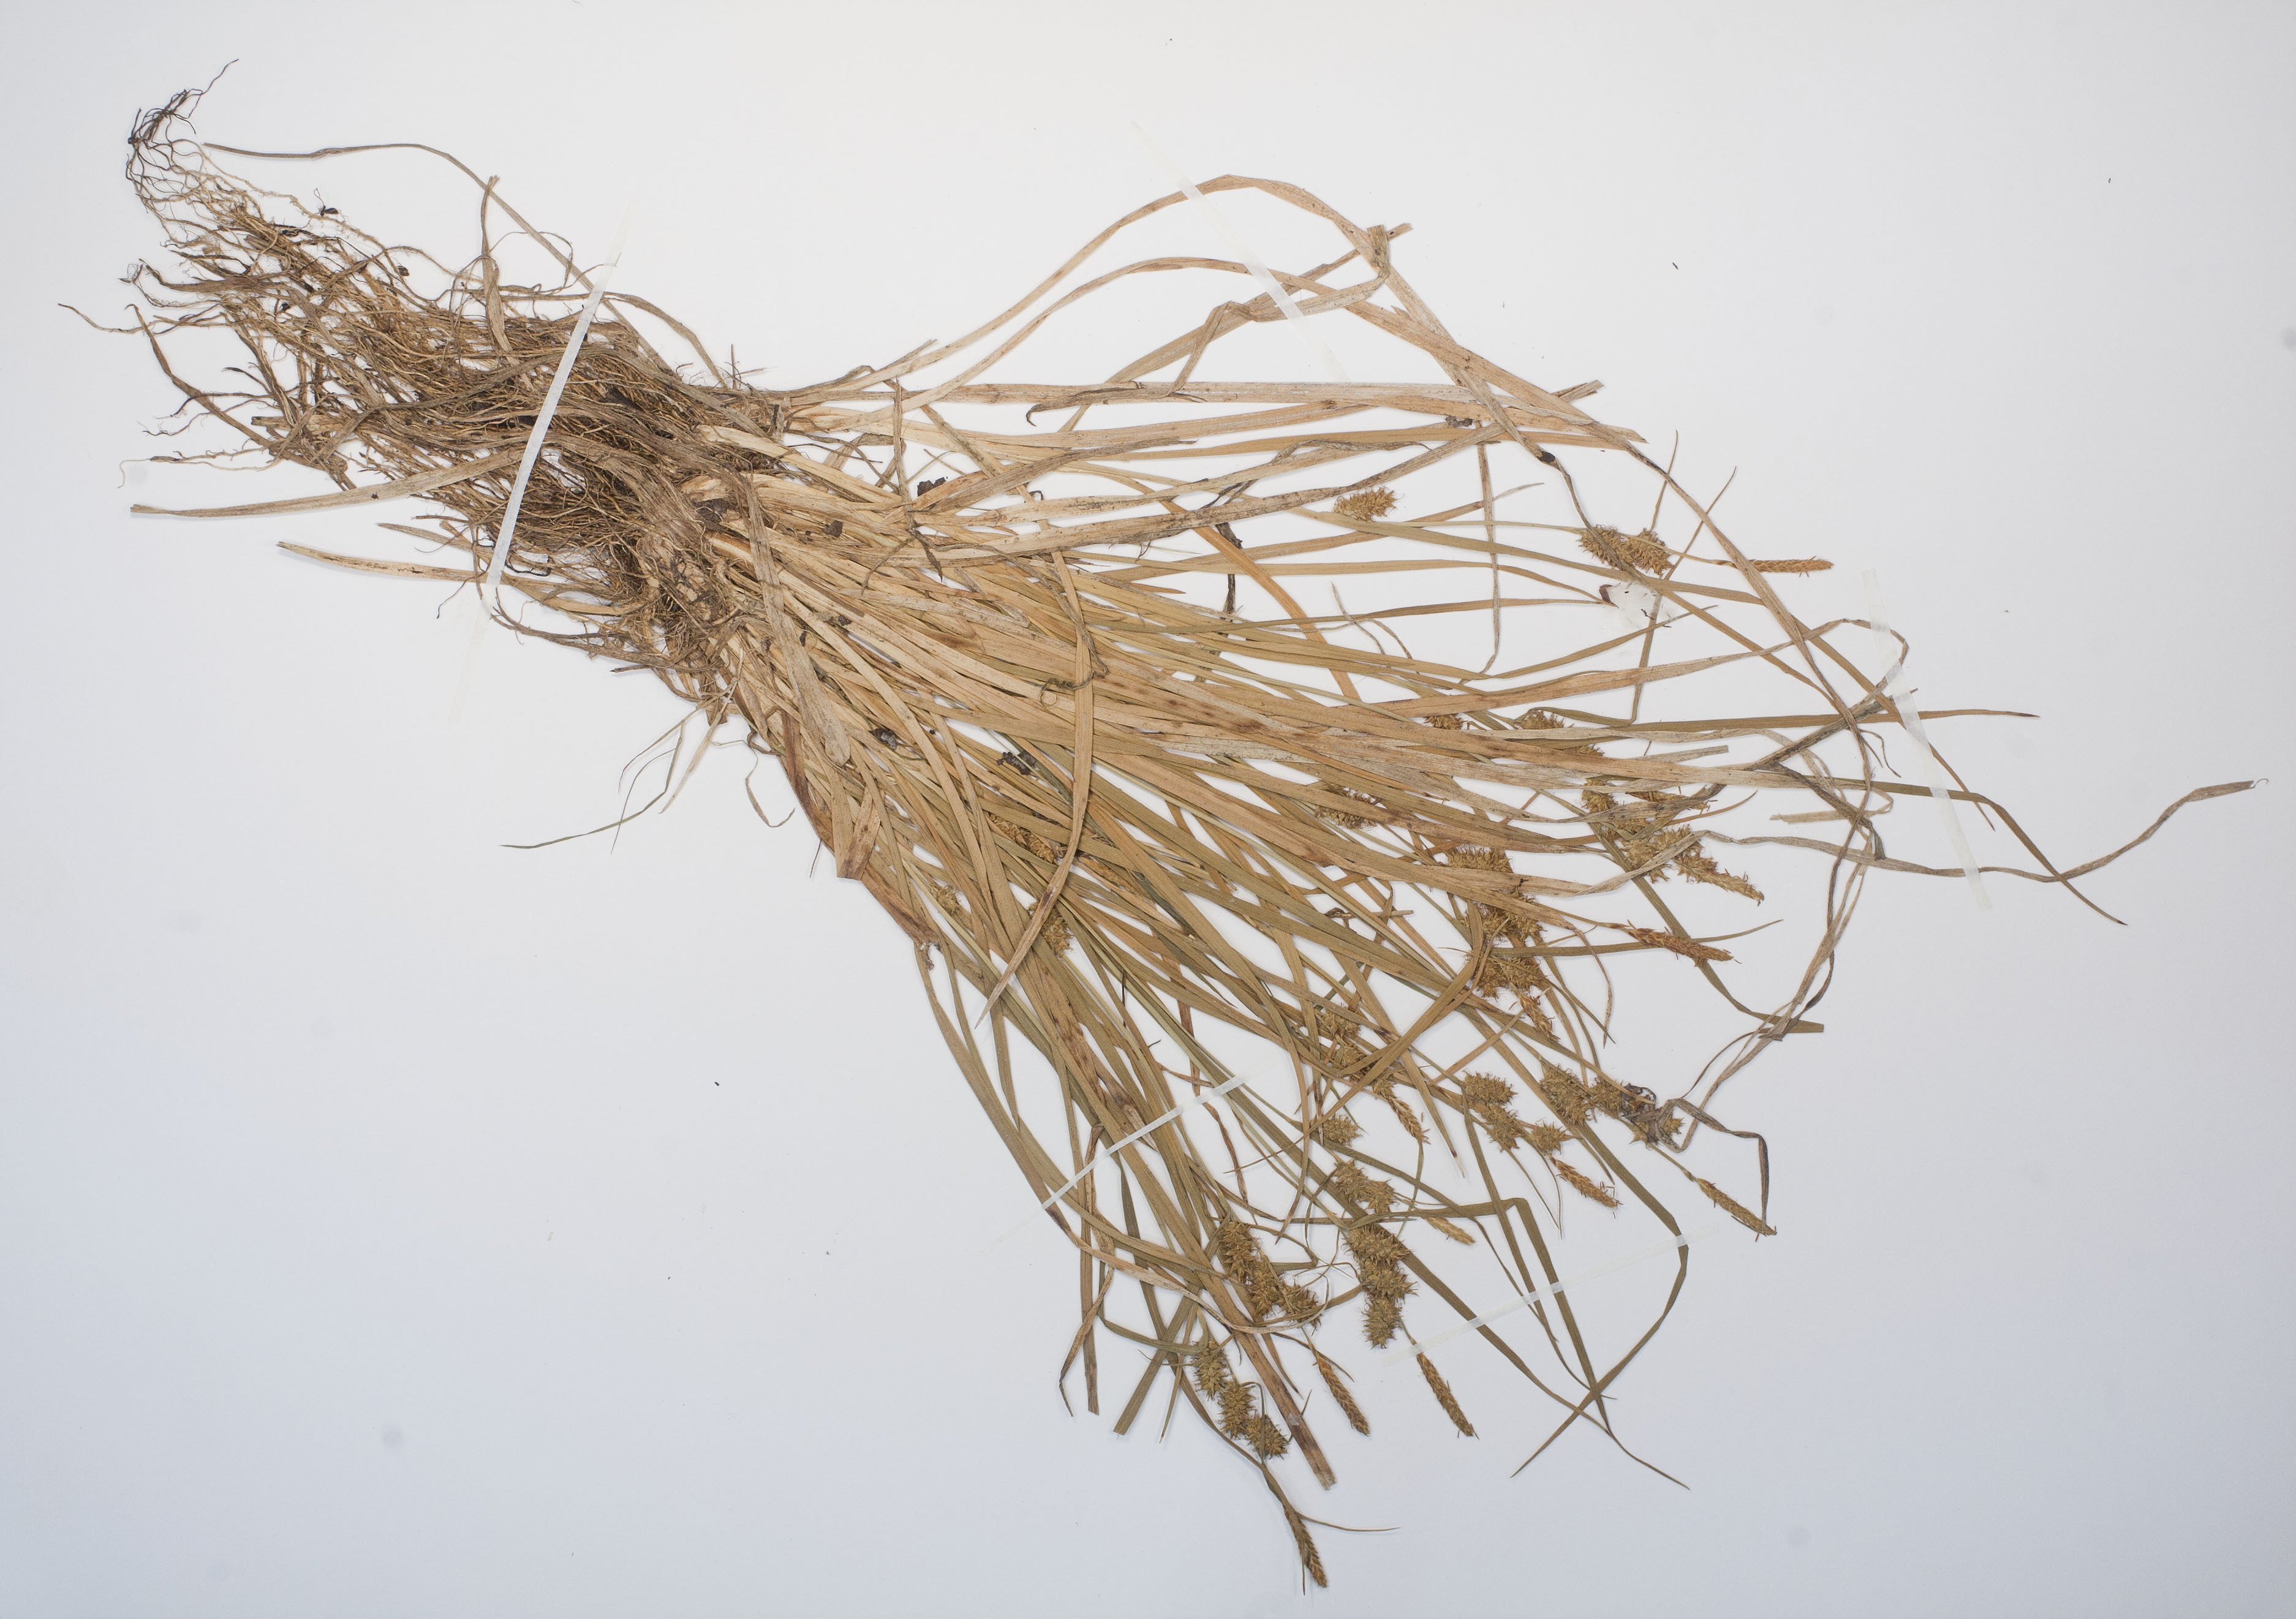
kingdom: Plantae
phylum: Tracheophyta
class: Liliopsida
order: Poales
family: Cyperaceae
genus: Carex
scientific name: Carex demissa
